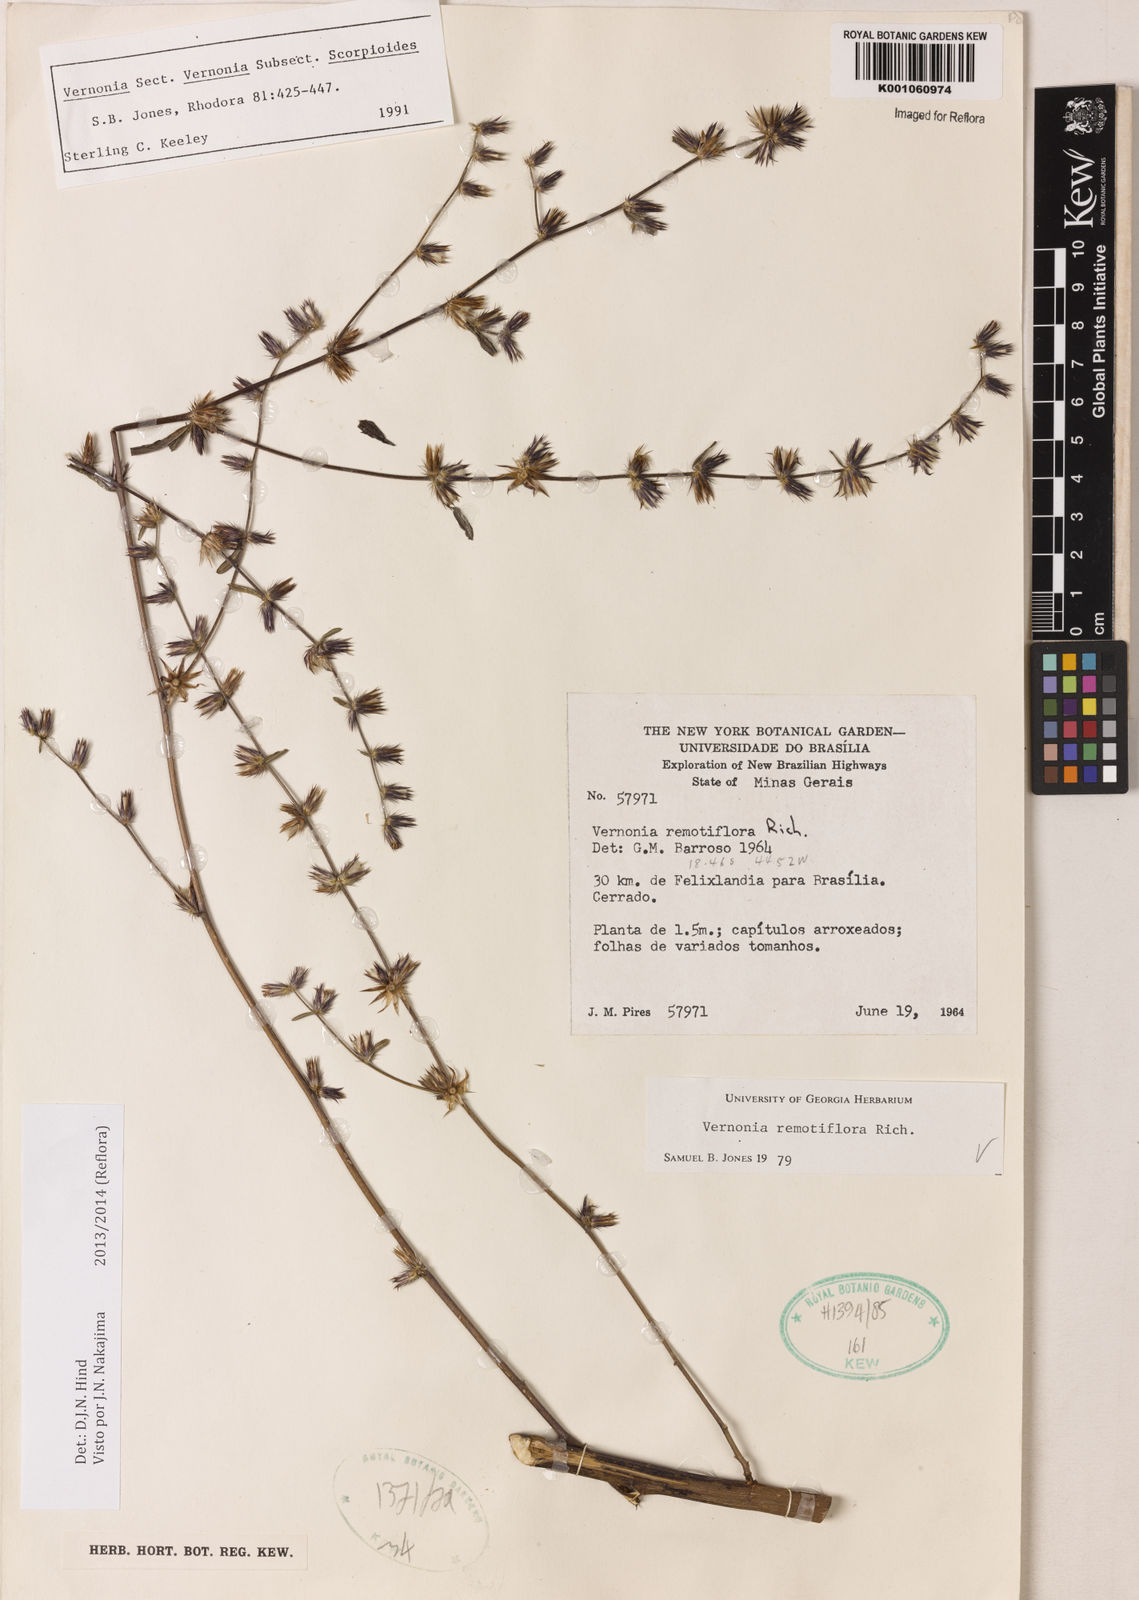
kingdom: Plantae
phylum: Tracheophyta
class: Magnoliopsida
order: Asterales
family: Asteraceae
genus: Lepidaploa
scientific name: Lepidaploa remotiflora
